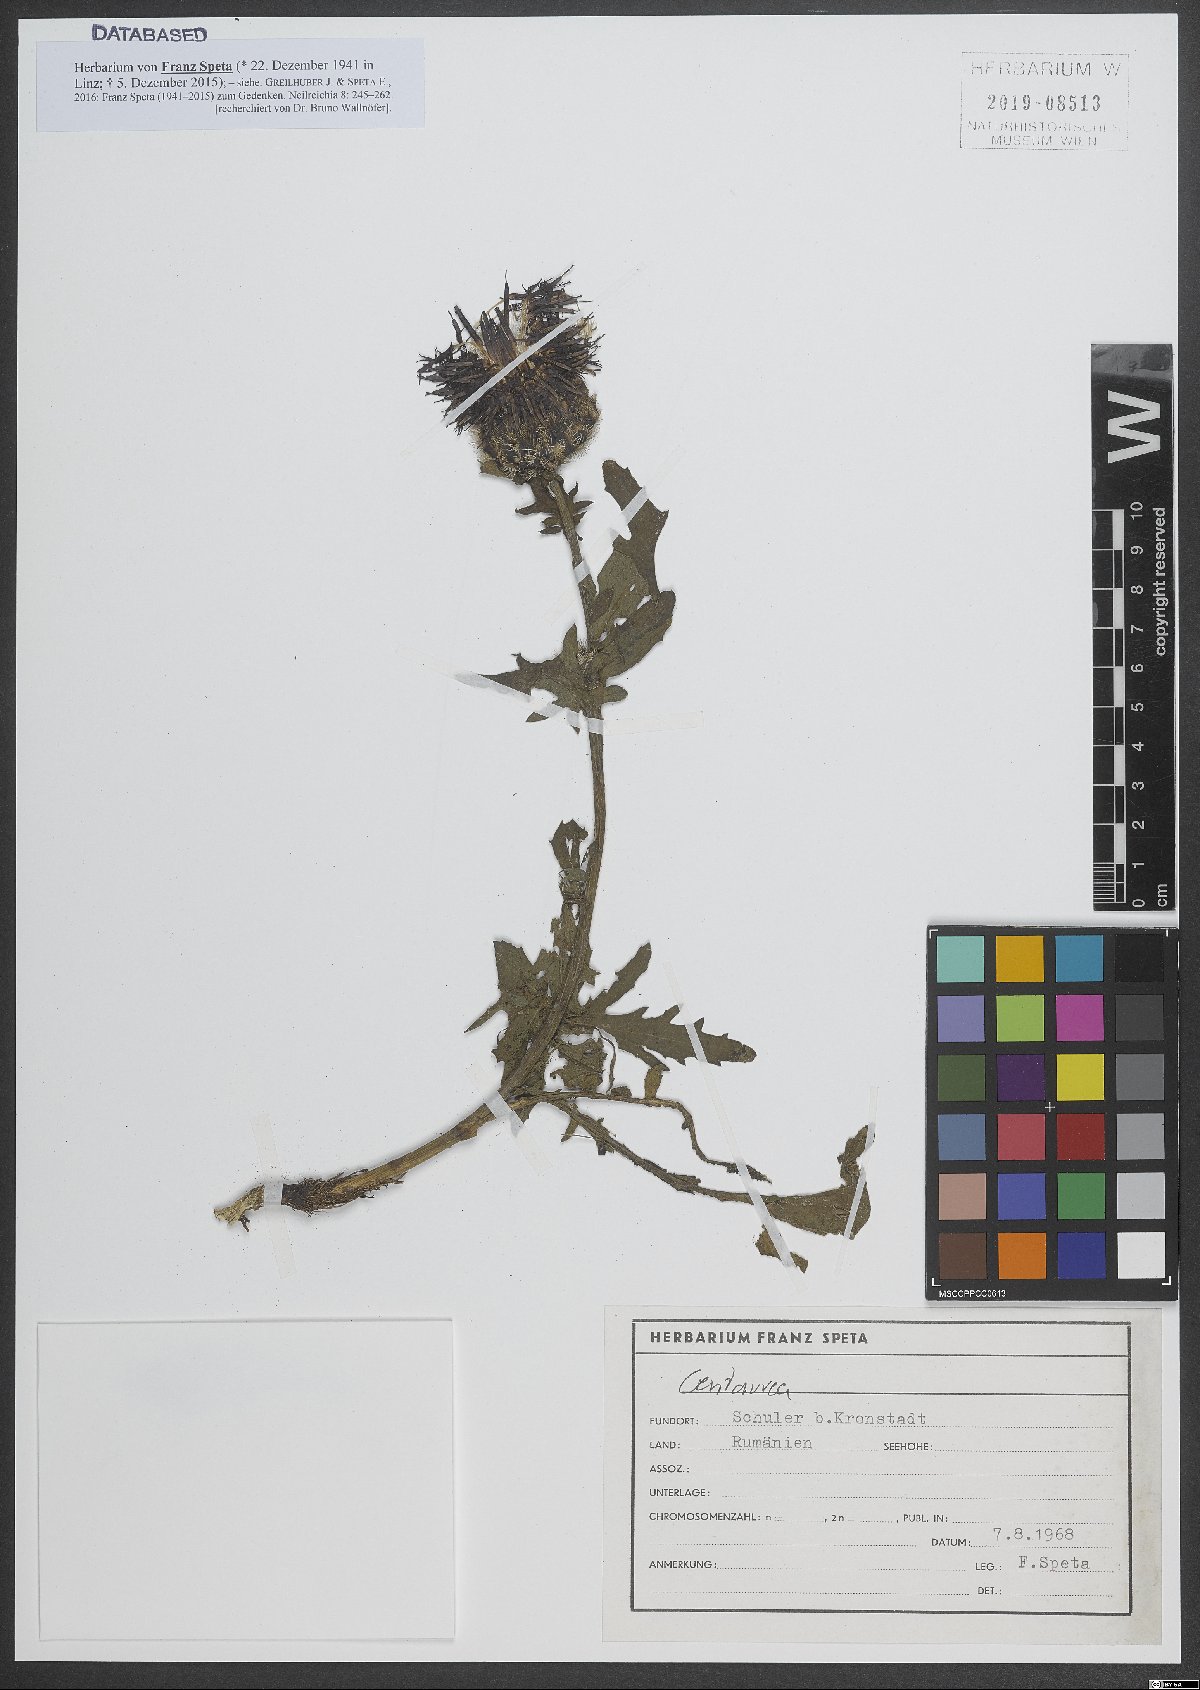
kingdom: Plantae
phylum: Tracheophyta
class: Magnoliopsida
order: Asterales
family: Asteraceae
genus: Centaurea
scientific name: Centaurea
